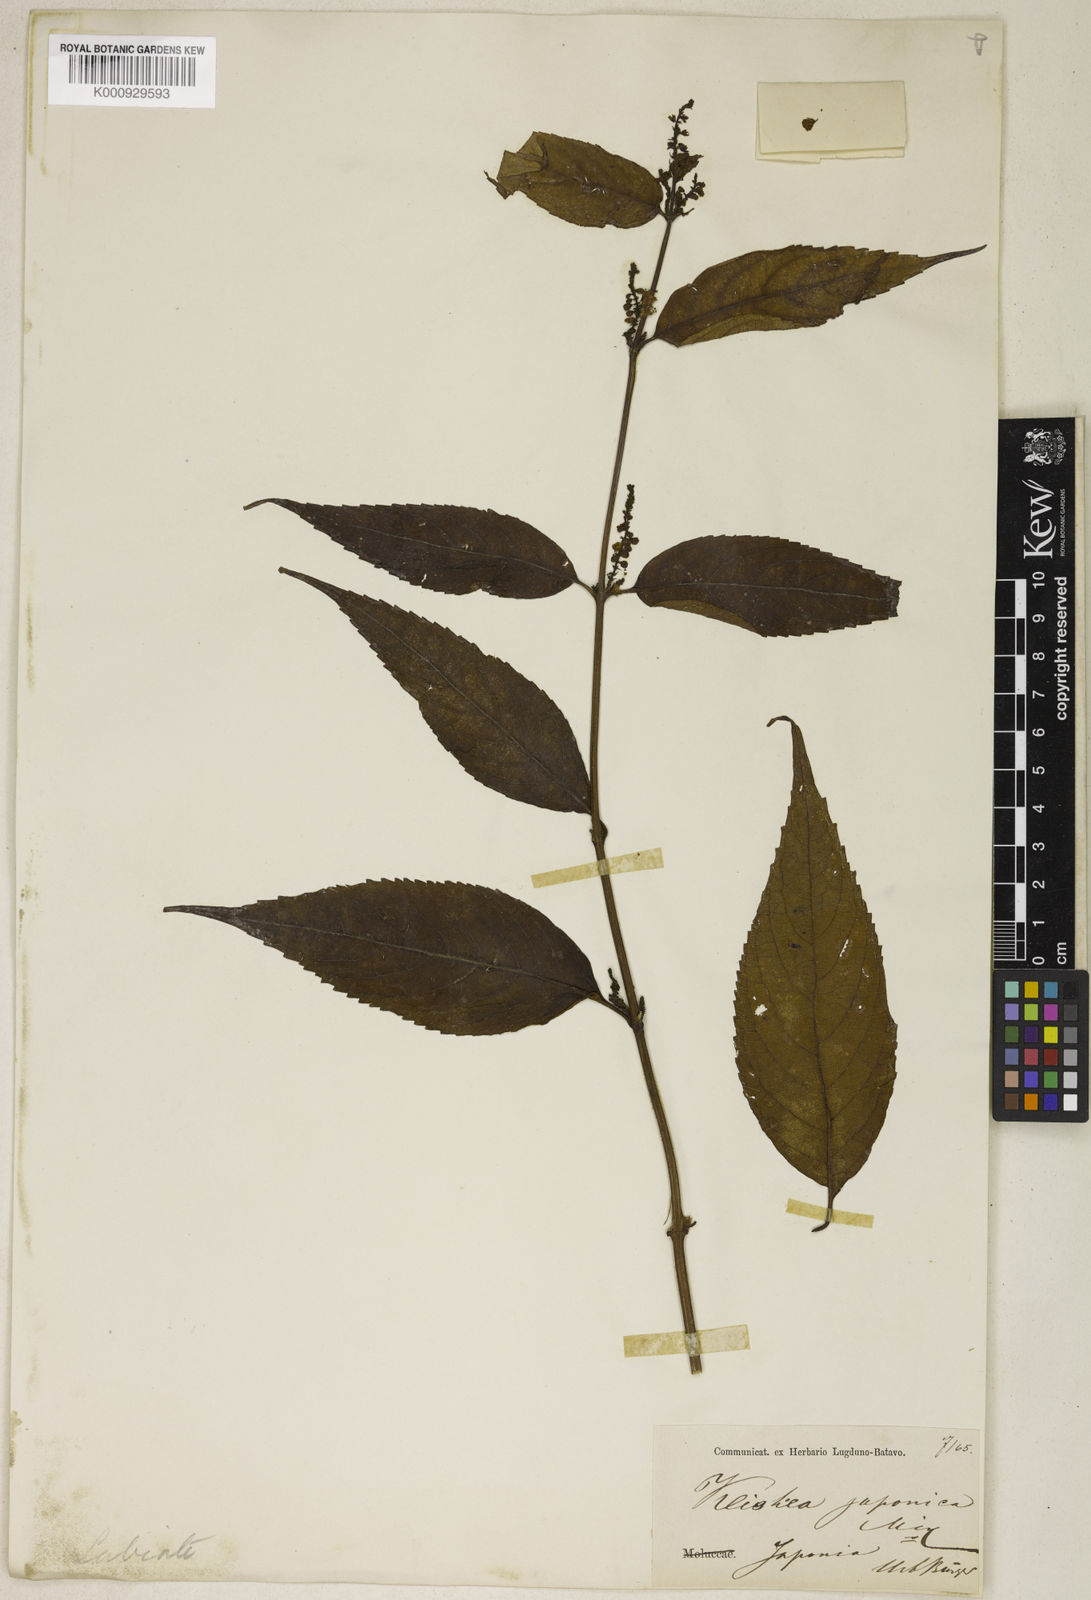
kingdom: Plantae
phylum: Tracheophyta
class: Magnoliopsida
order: Lamiales
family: Lamiaceae
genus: Collinsonia
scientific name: Collinsonia japonica
